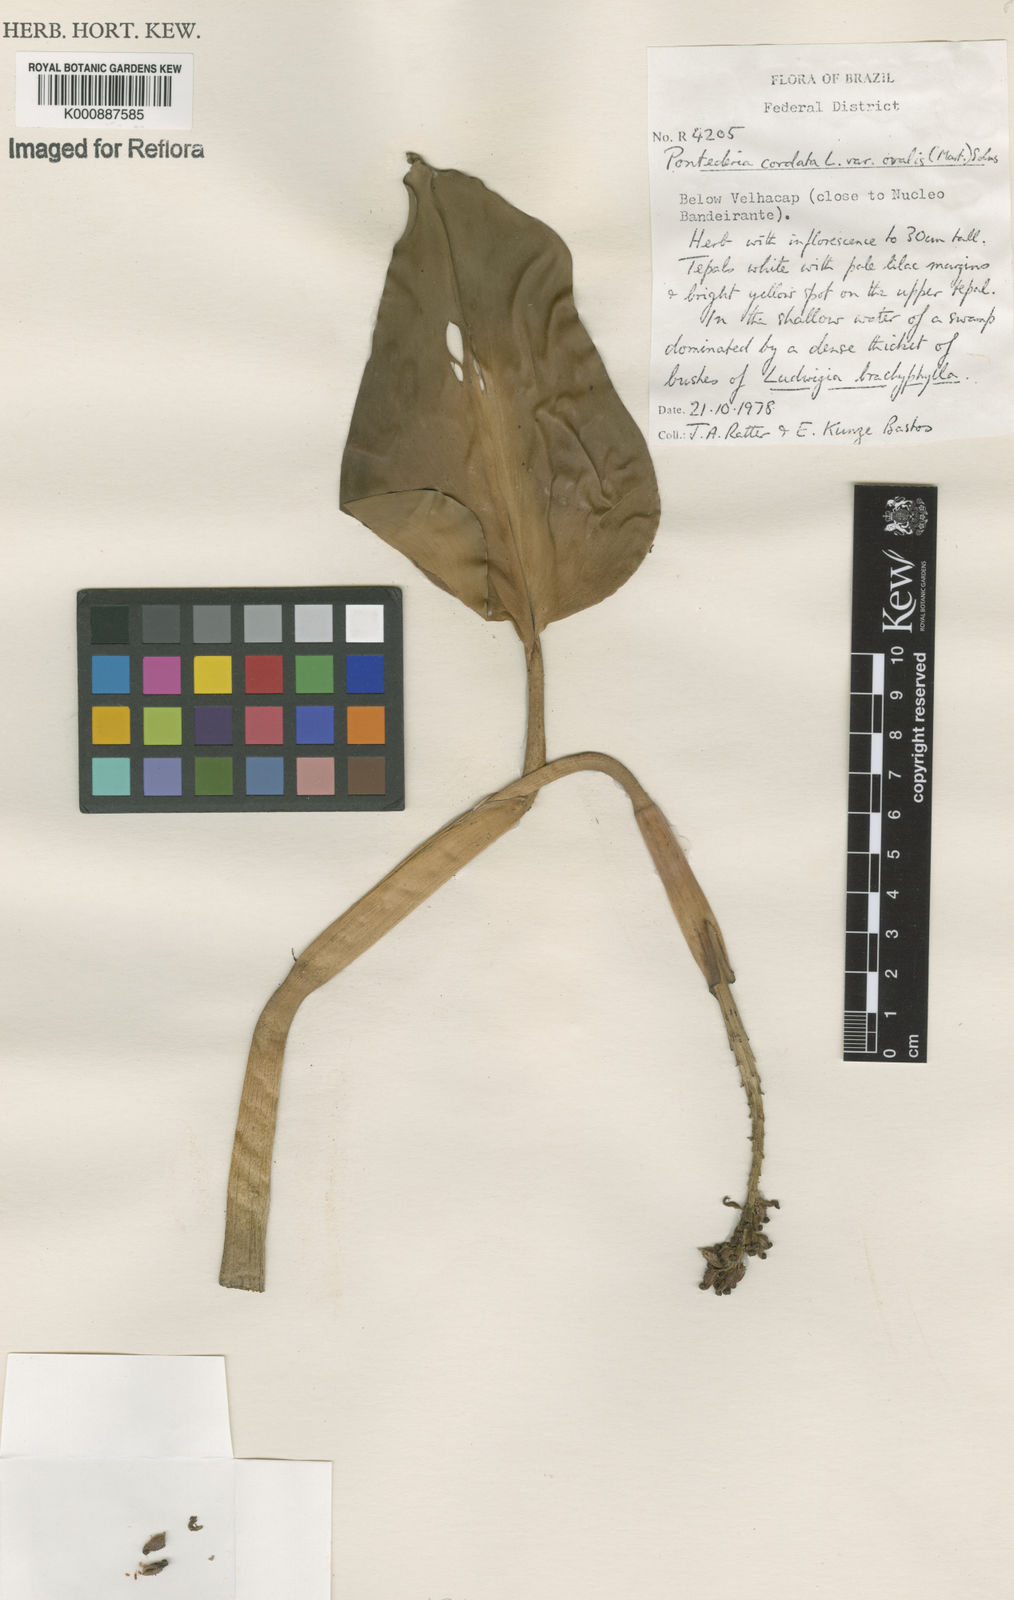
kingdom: Plantae
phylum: Tracheophyta
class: Liliopsida
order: Commelinales
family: Pontederiaceae
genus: Pontederia
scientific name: Pontederia cordata
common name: Pickerelweed
